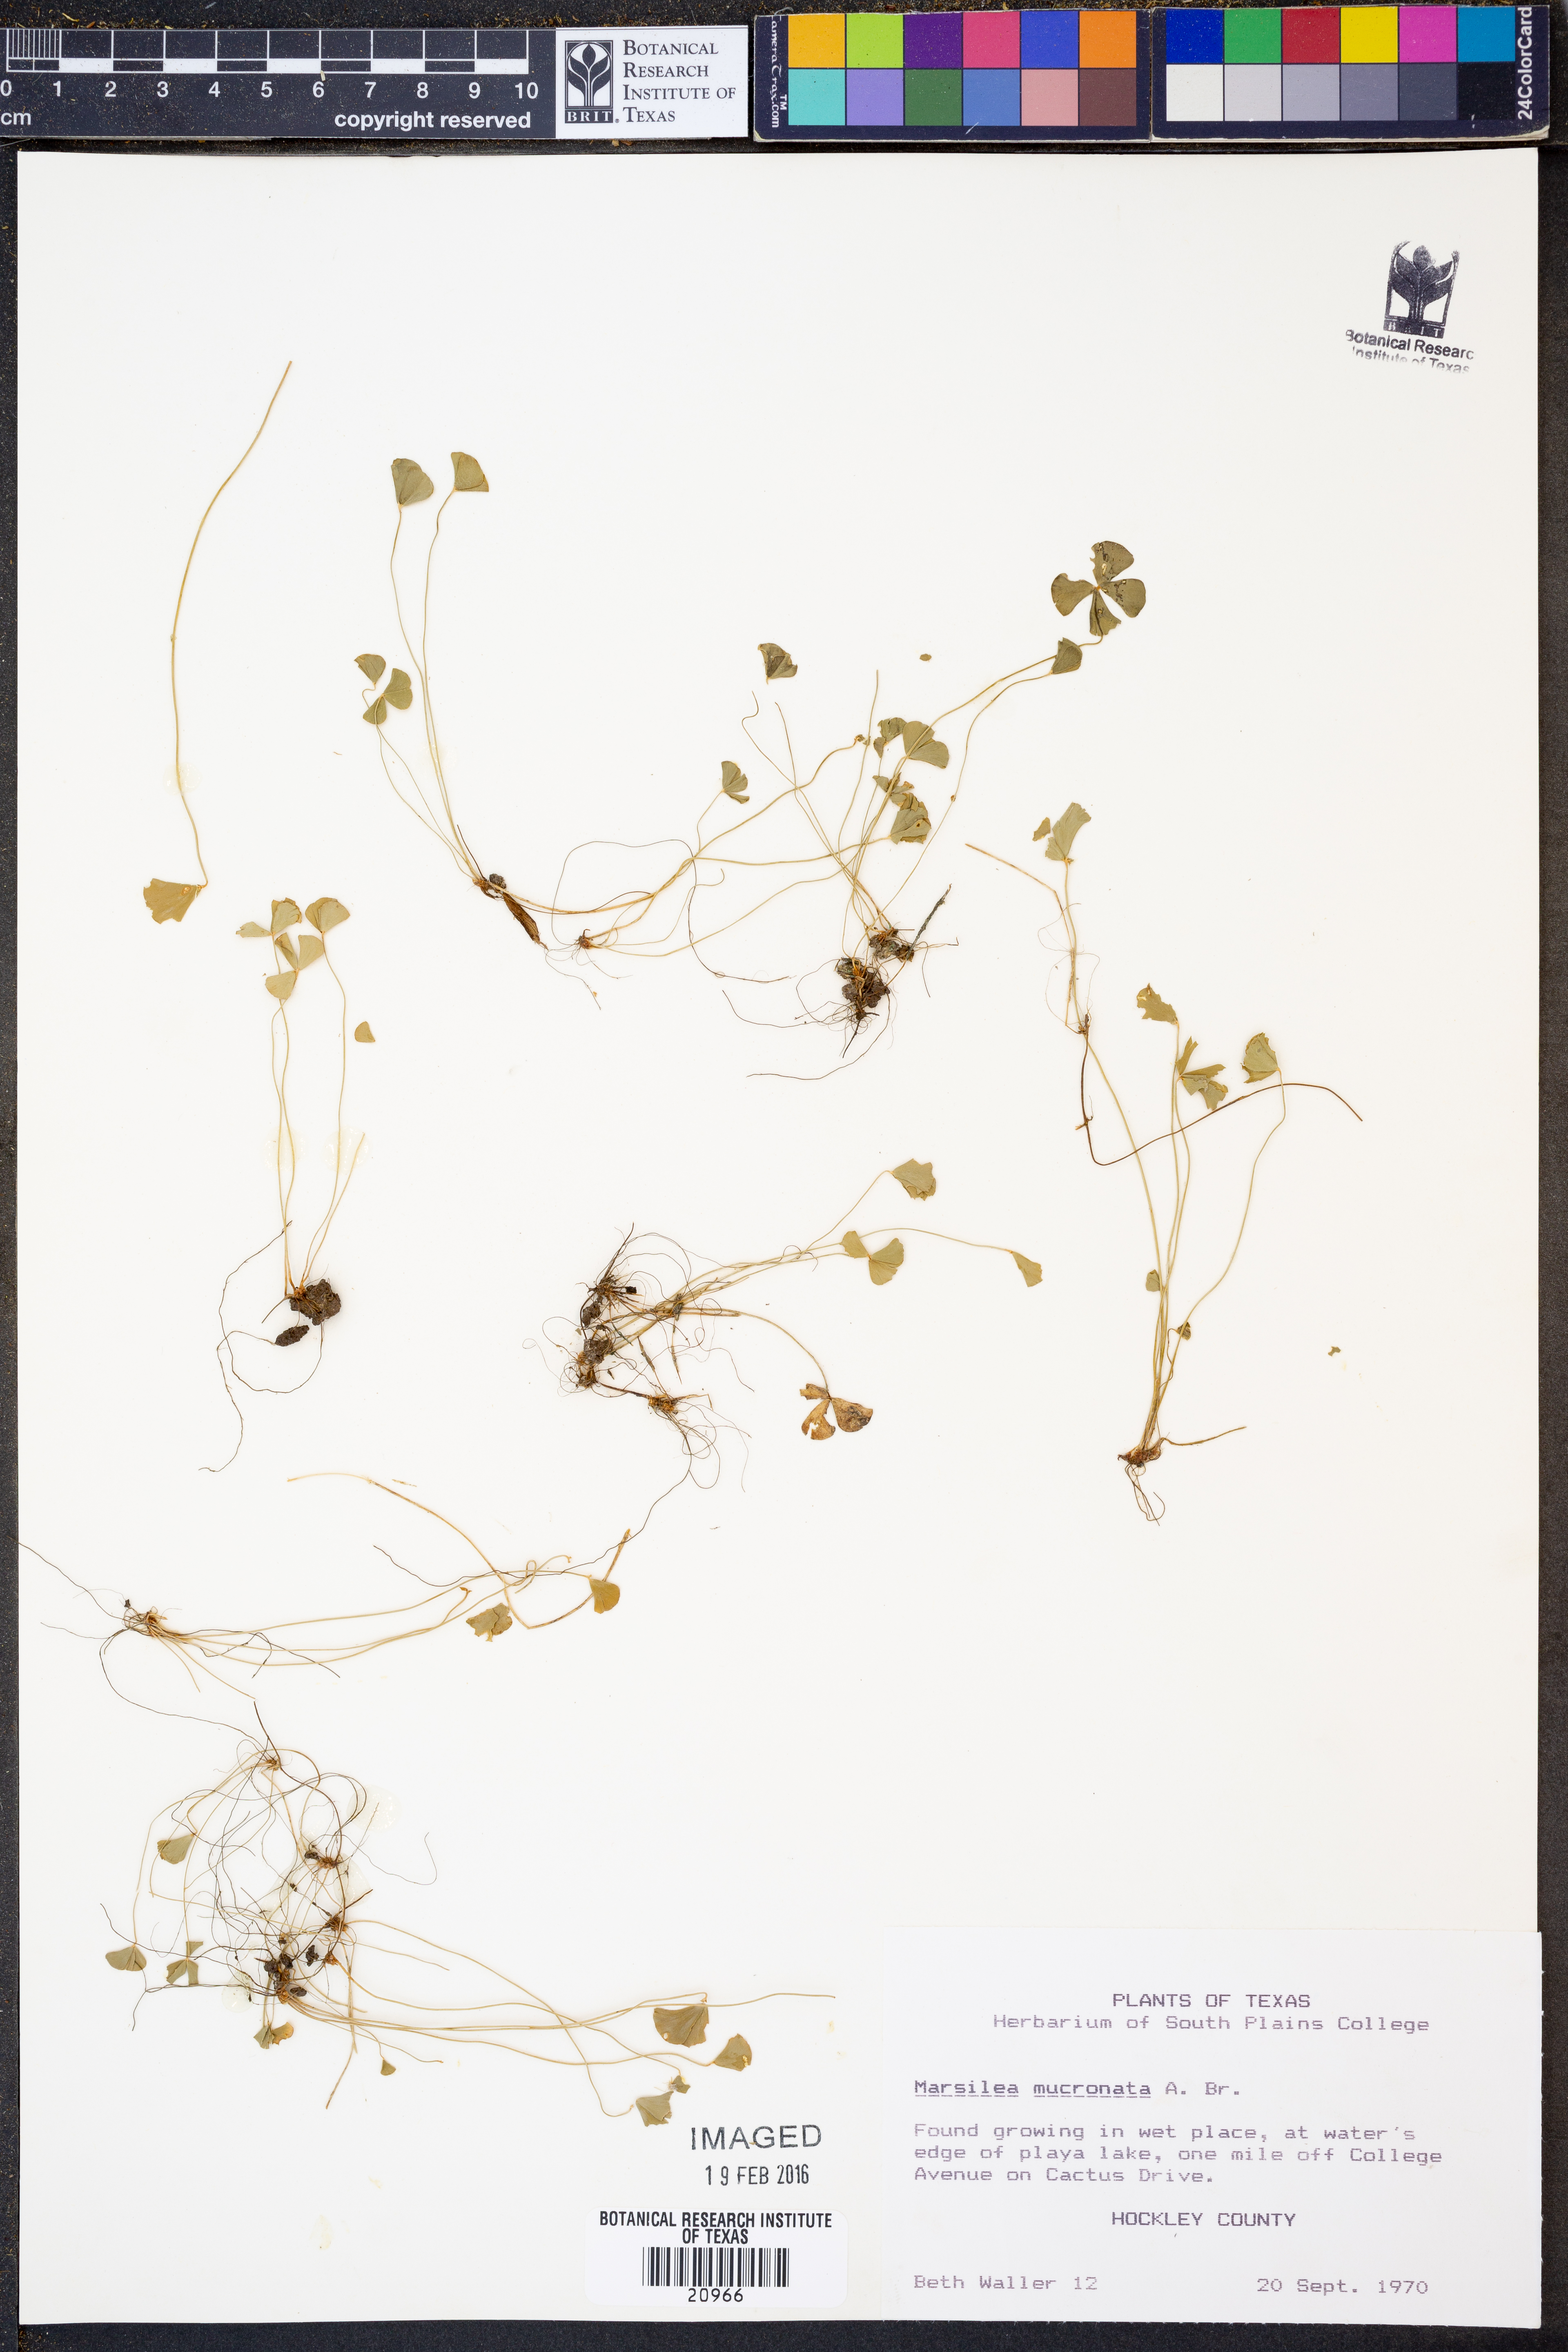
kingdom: Plantae
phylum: Tracheophyta
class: Polypodiopsida
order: Salviniales
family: Marsileaceae
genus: Marsilea
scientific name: Marsilea vestita
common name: Hooked-pepperwort
